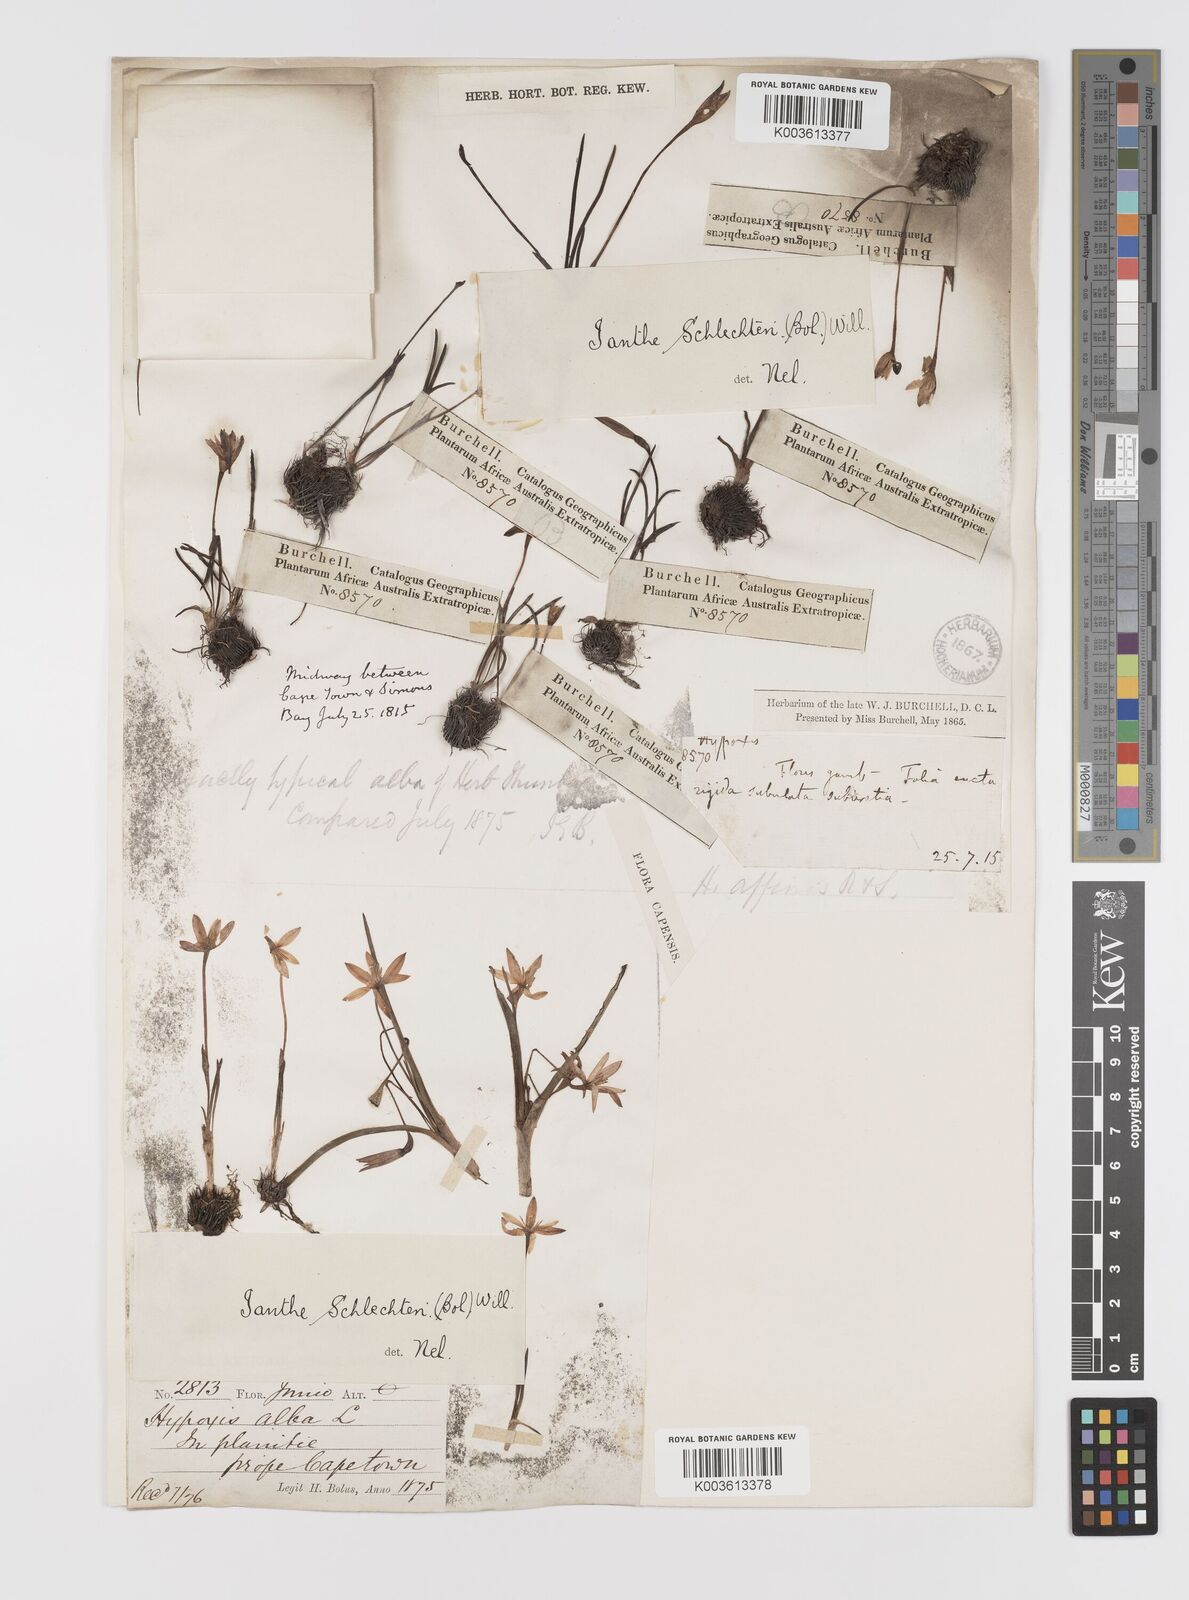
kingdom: Plantae
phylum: Tracheophyta
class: Liliopsida
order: Asparagales
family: Hypoxidaceae
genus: Pauridia
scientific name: Pauridia affinis
